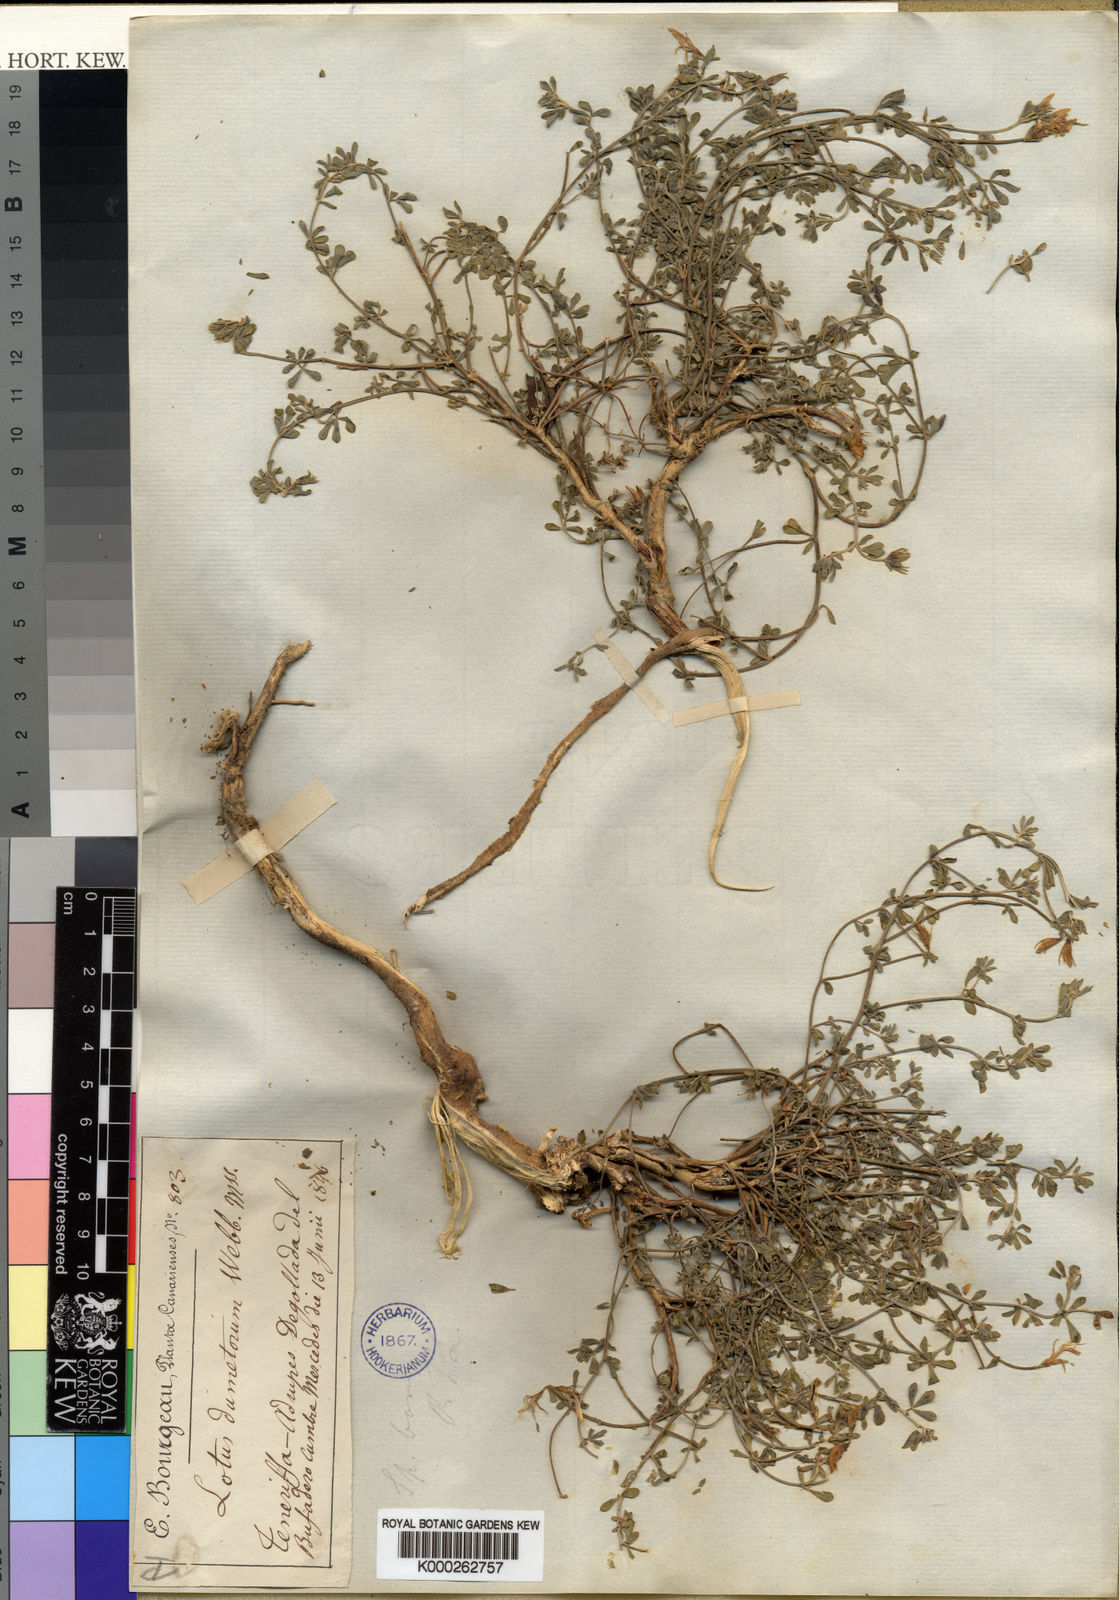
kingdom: Plantae
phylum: Tracheophyta
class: Magnoliopsida
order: Fabales
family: Fabaceae
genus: Lotus
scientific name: Lotus glaucus
